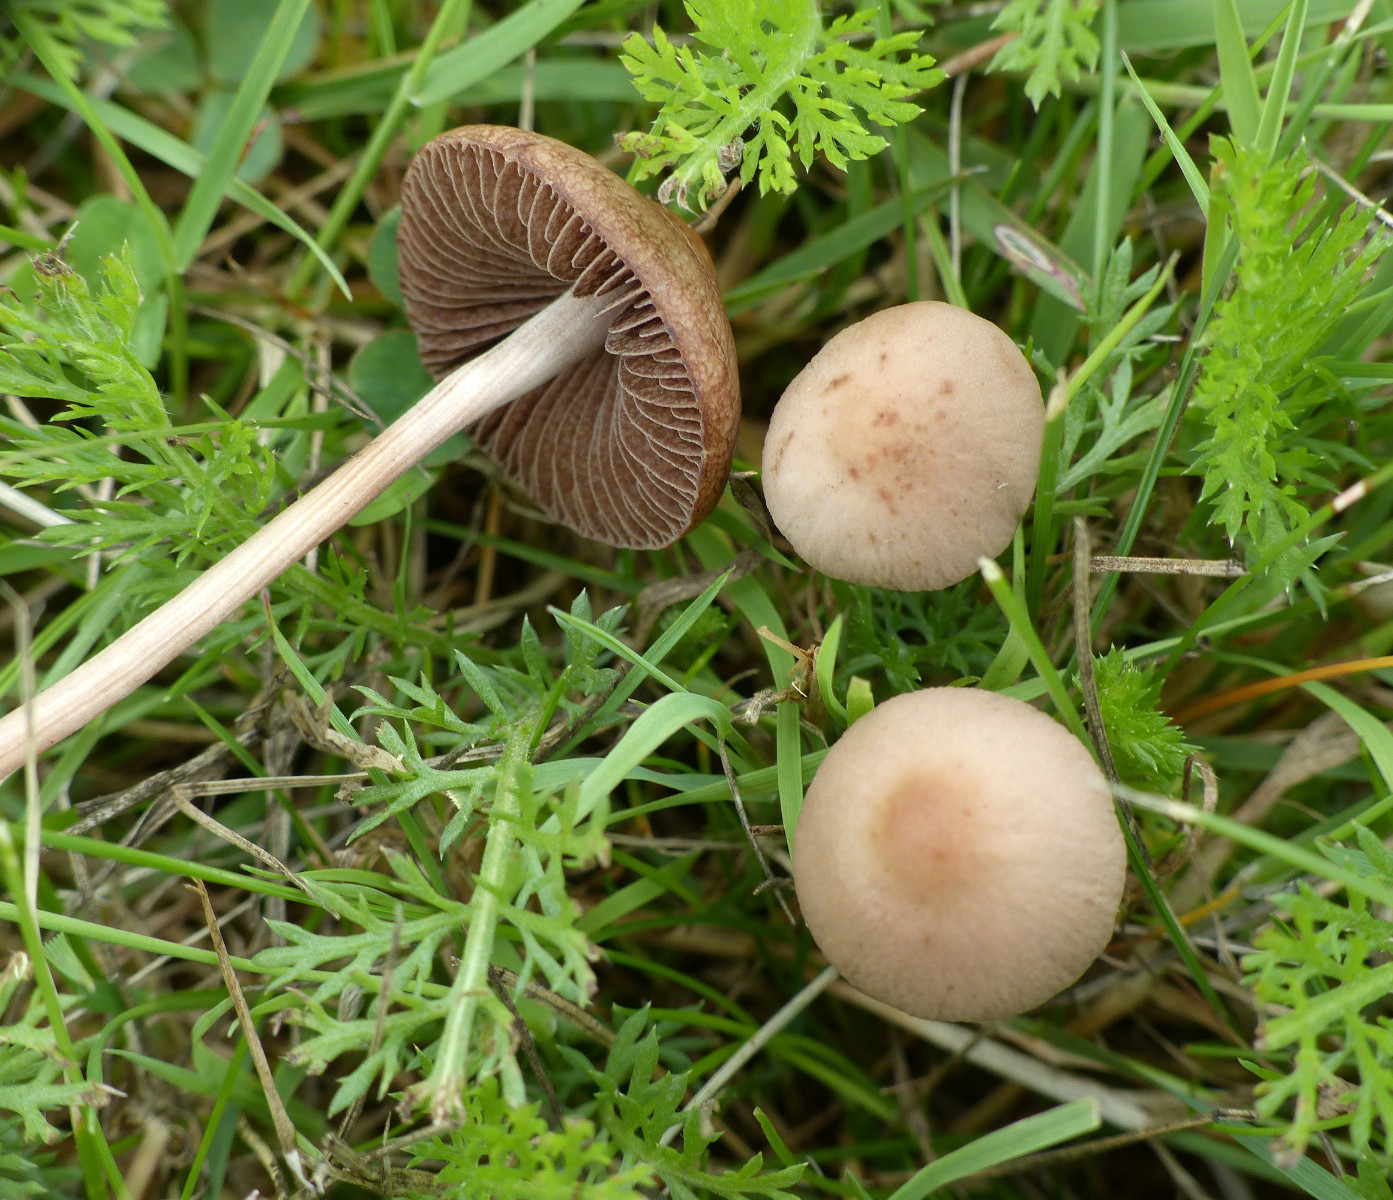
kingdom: Fungi
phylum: Basidiomycota
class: Agaricomycetes
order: Agaricales
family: Bolbitiaceae
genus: Panaeolina
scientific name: Panaeolina foenisecii
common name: høslætsvamp
